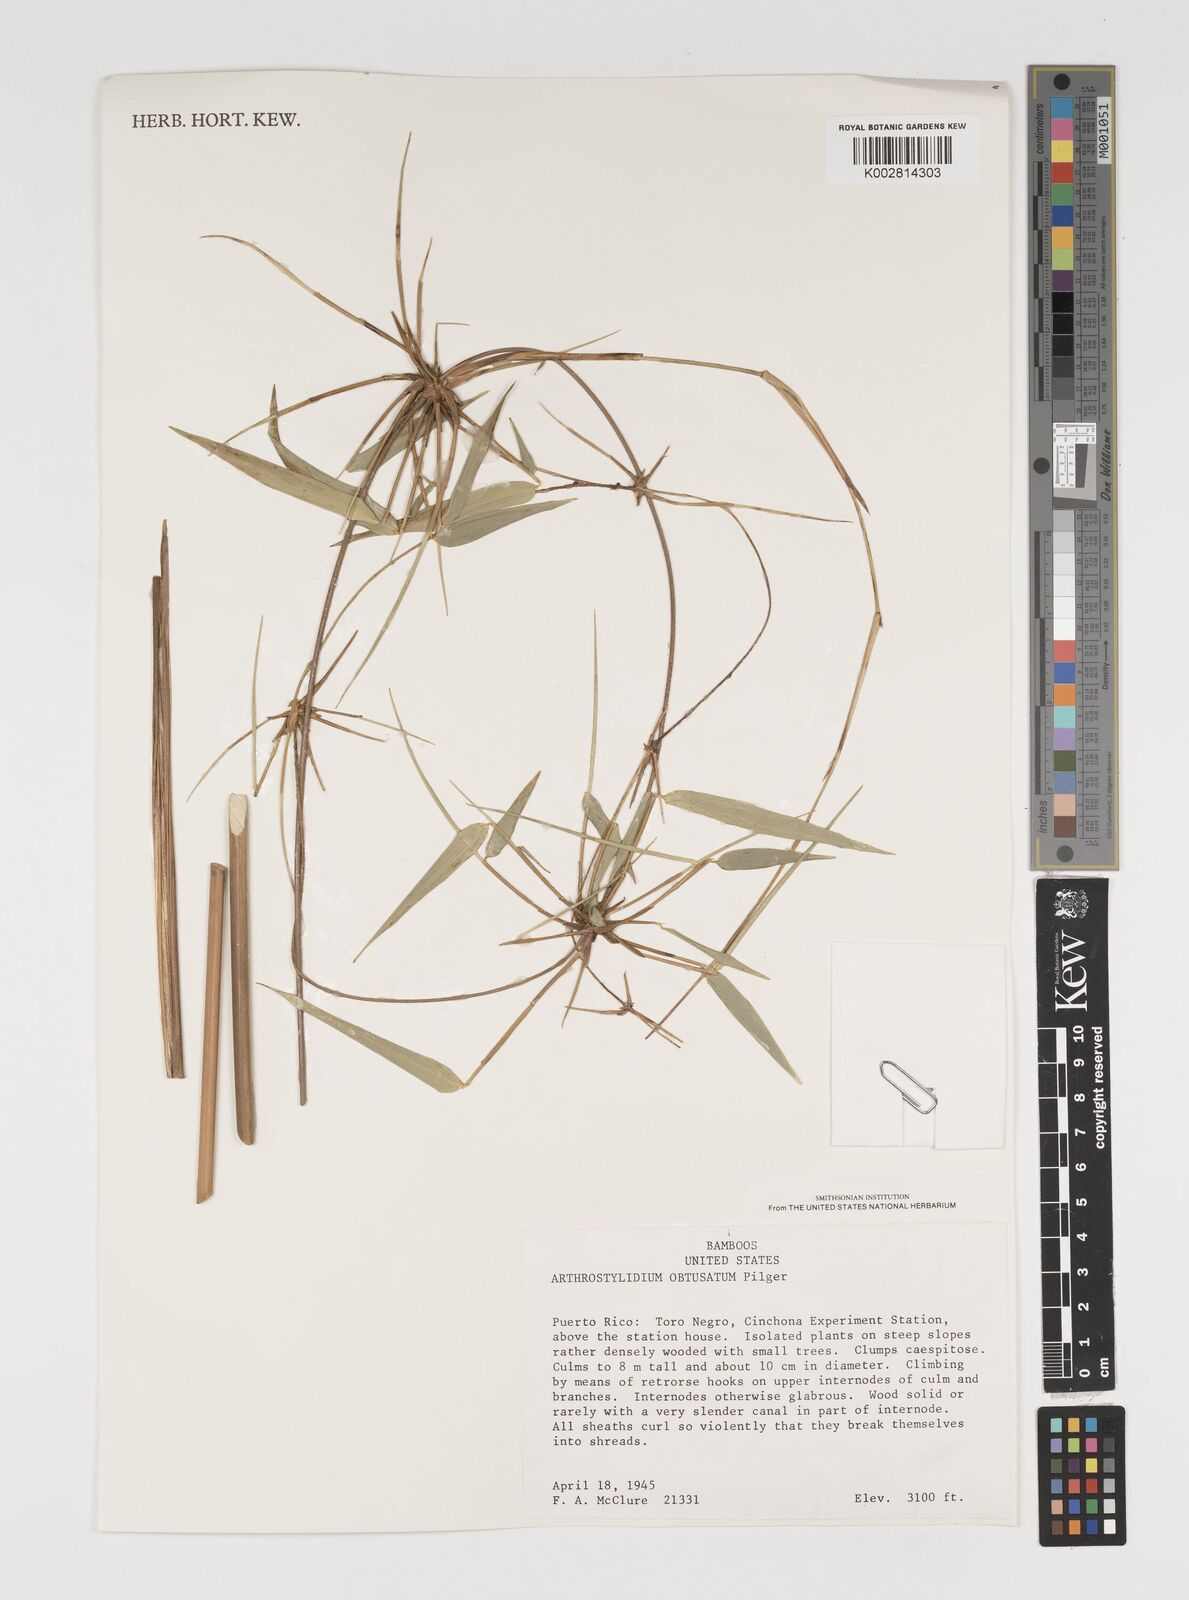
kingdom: Plantae
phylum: Tracheophyta
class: Liliopsida
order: Poales
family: Poaceae
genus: Arthrostylidium
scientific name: Arthrostylidium obtusatum
